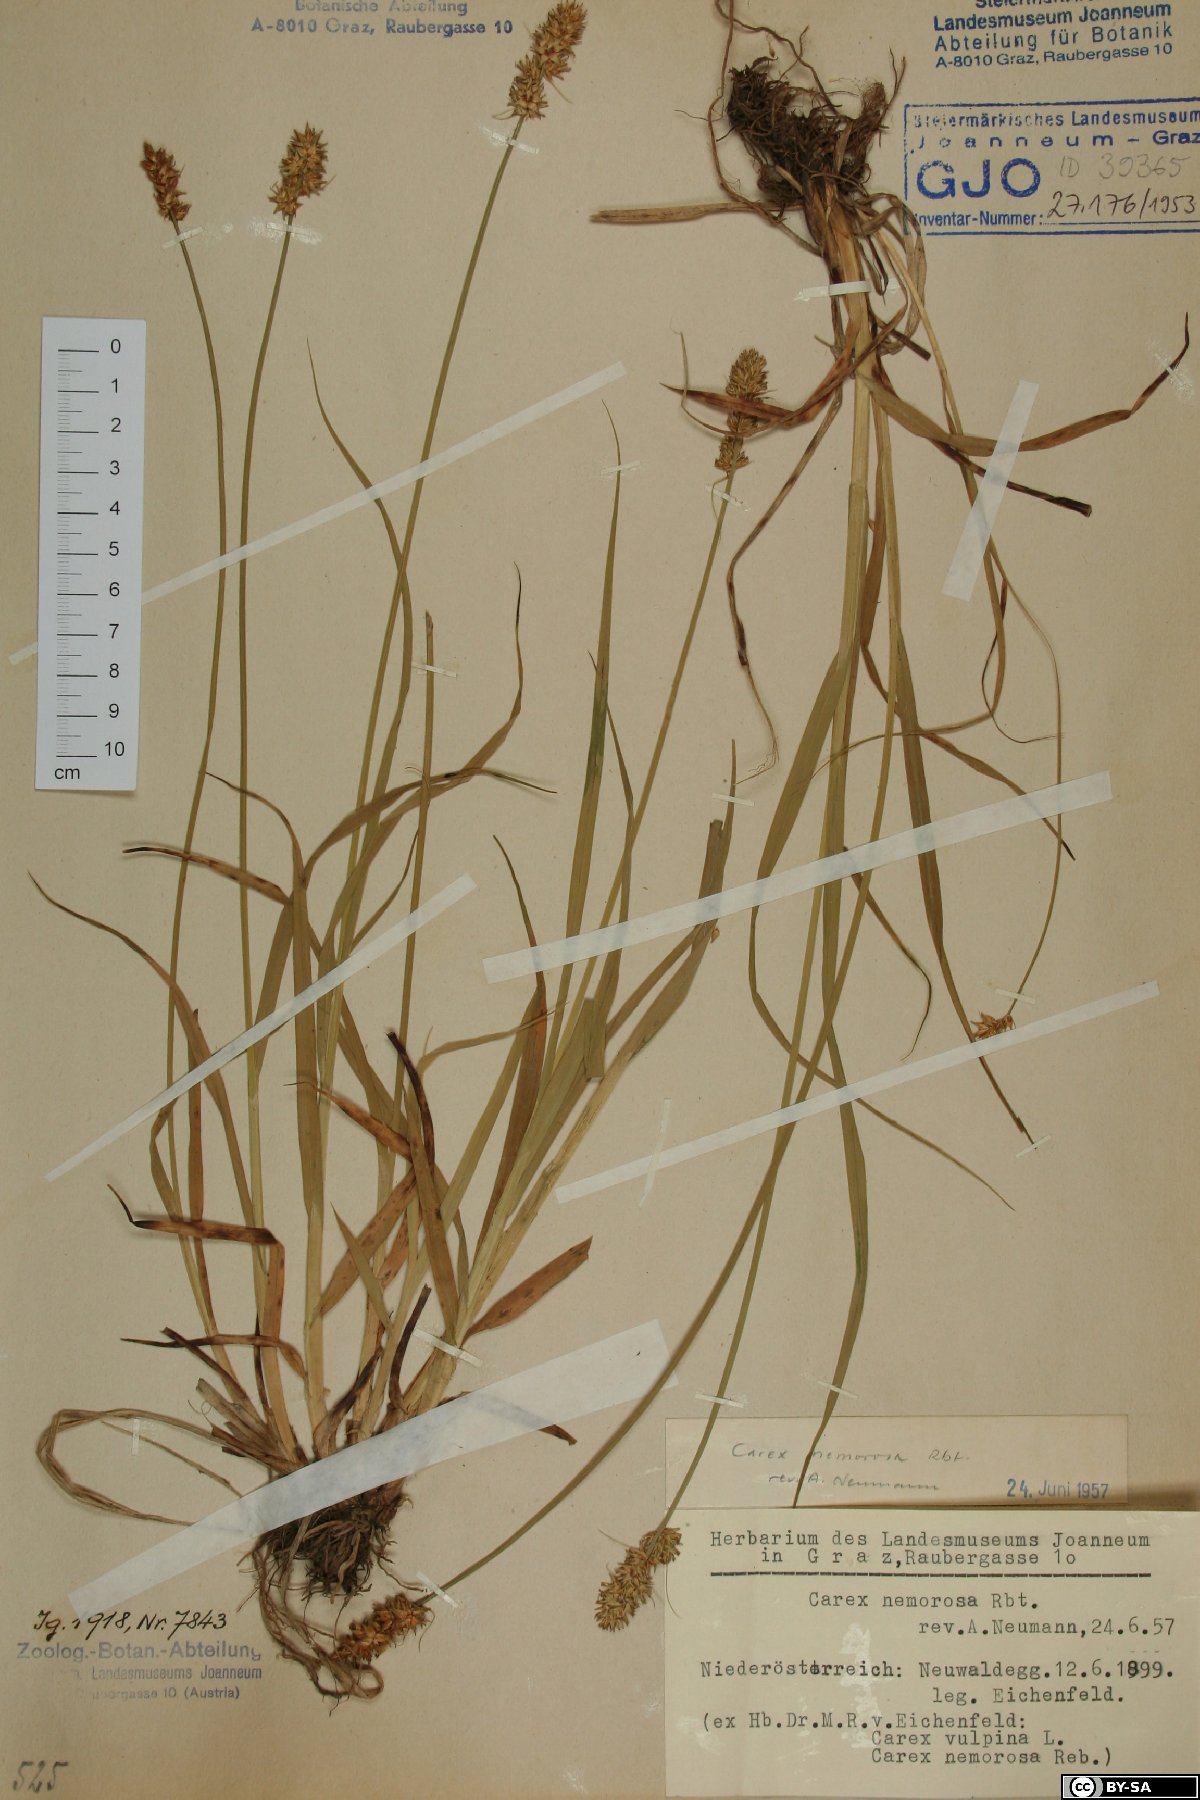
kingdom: Plantae
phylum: Tracheophyta
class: Liliopsida
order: Poales
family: Cyperaceae
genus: Carex
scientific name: Carex otrubae
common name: False fox-sedge
